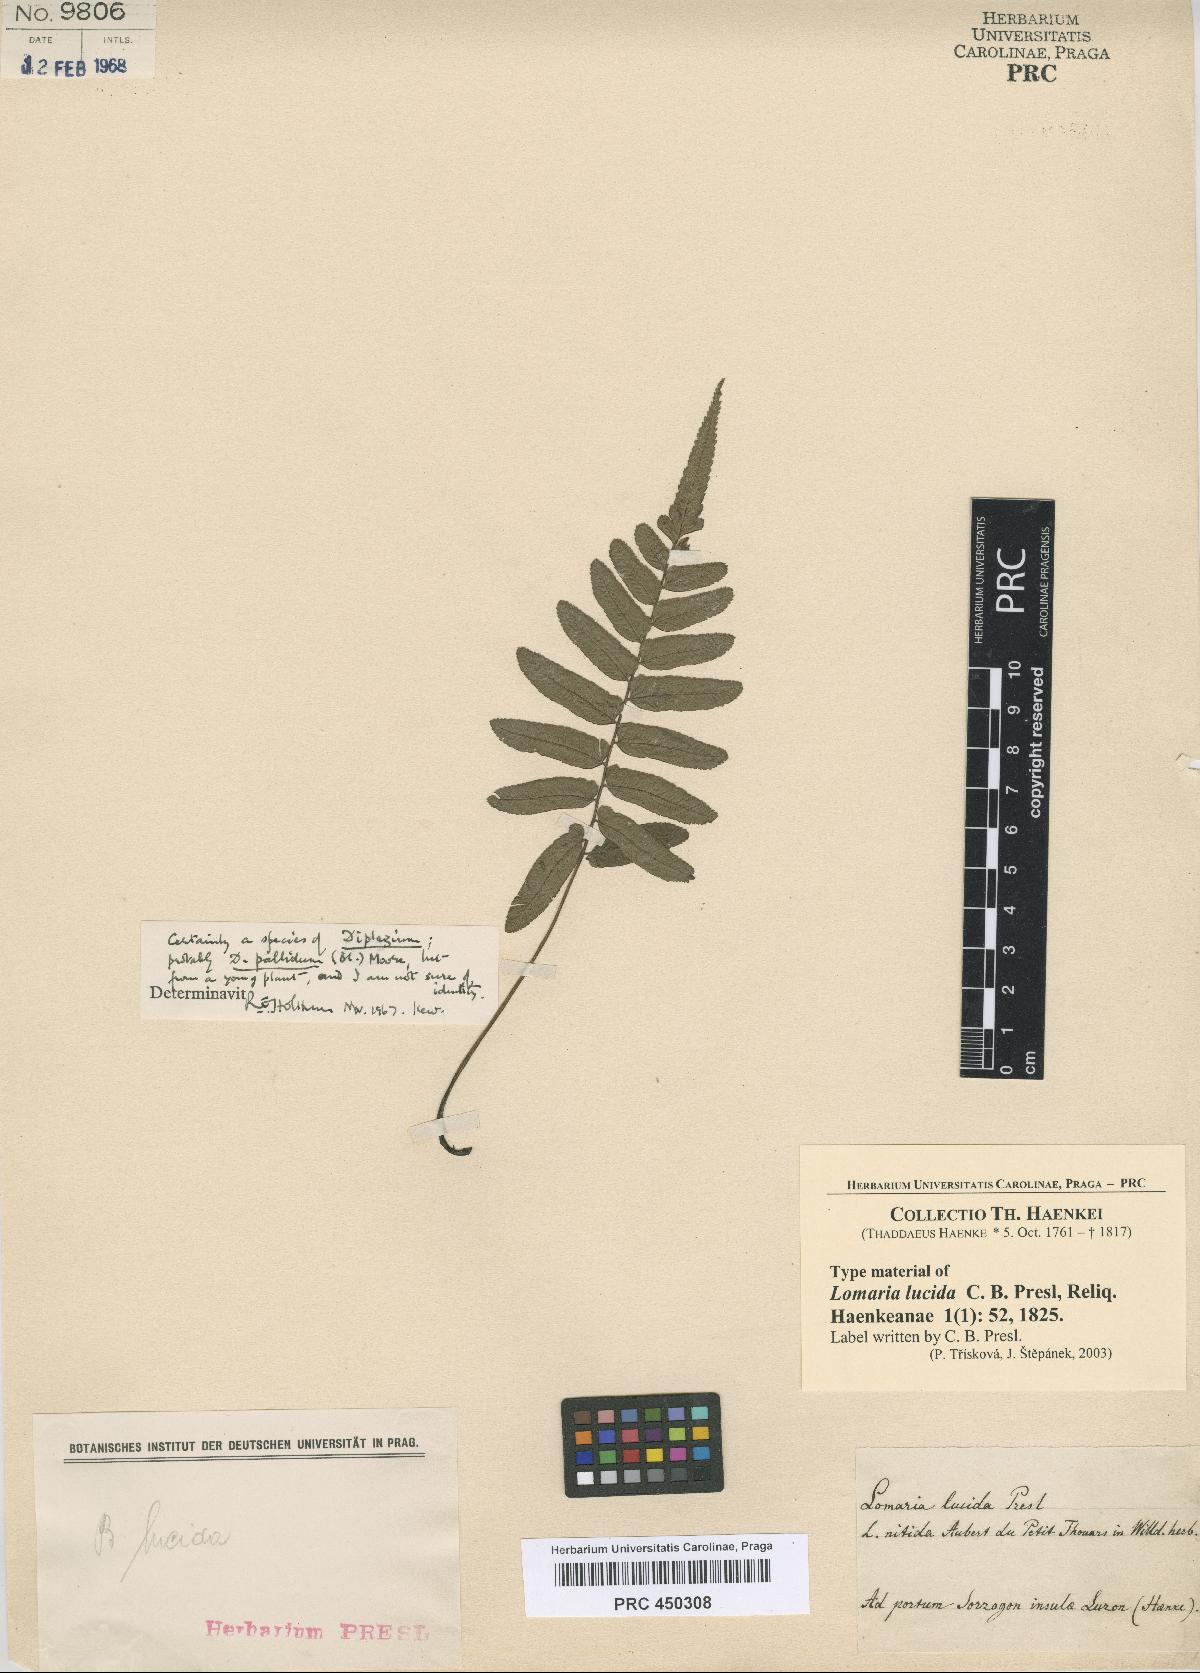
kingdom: Plantae
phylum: Tracheophyta
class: Polypodiopsida
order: Polypodiales
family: Blechnaceae
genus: Blechnum
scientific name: Blechnum Lomaria lucida
